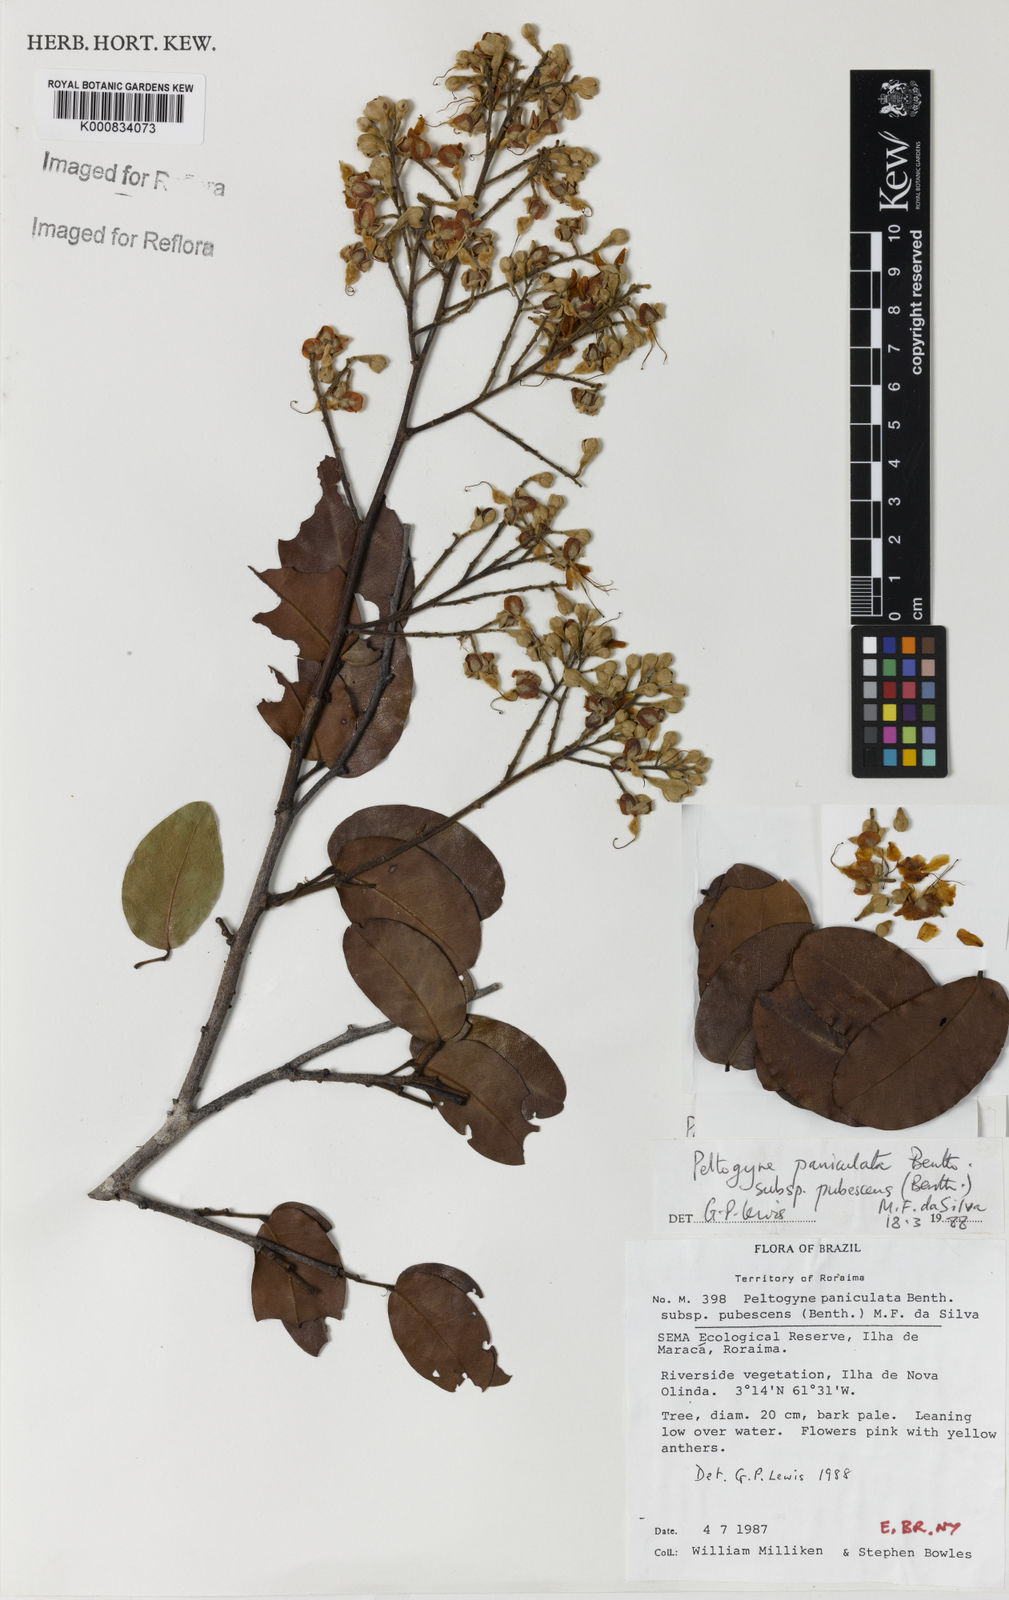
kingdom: Plantae
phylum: Tracheophyta
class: Magnoliopsida
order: Fabales
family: Fabaceae
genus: Peltogyne
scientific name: Peltogyne paniculata
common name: Purpleheart
